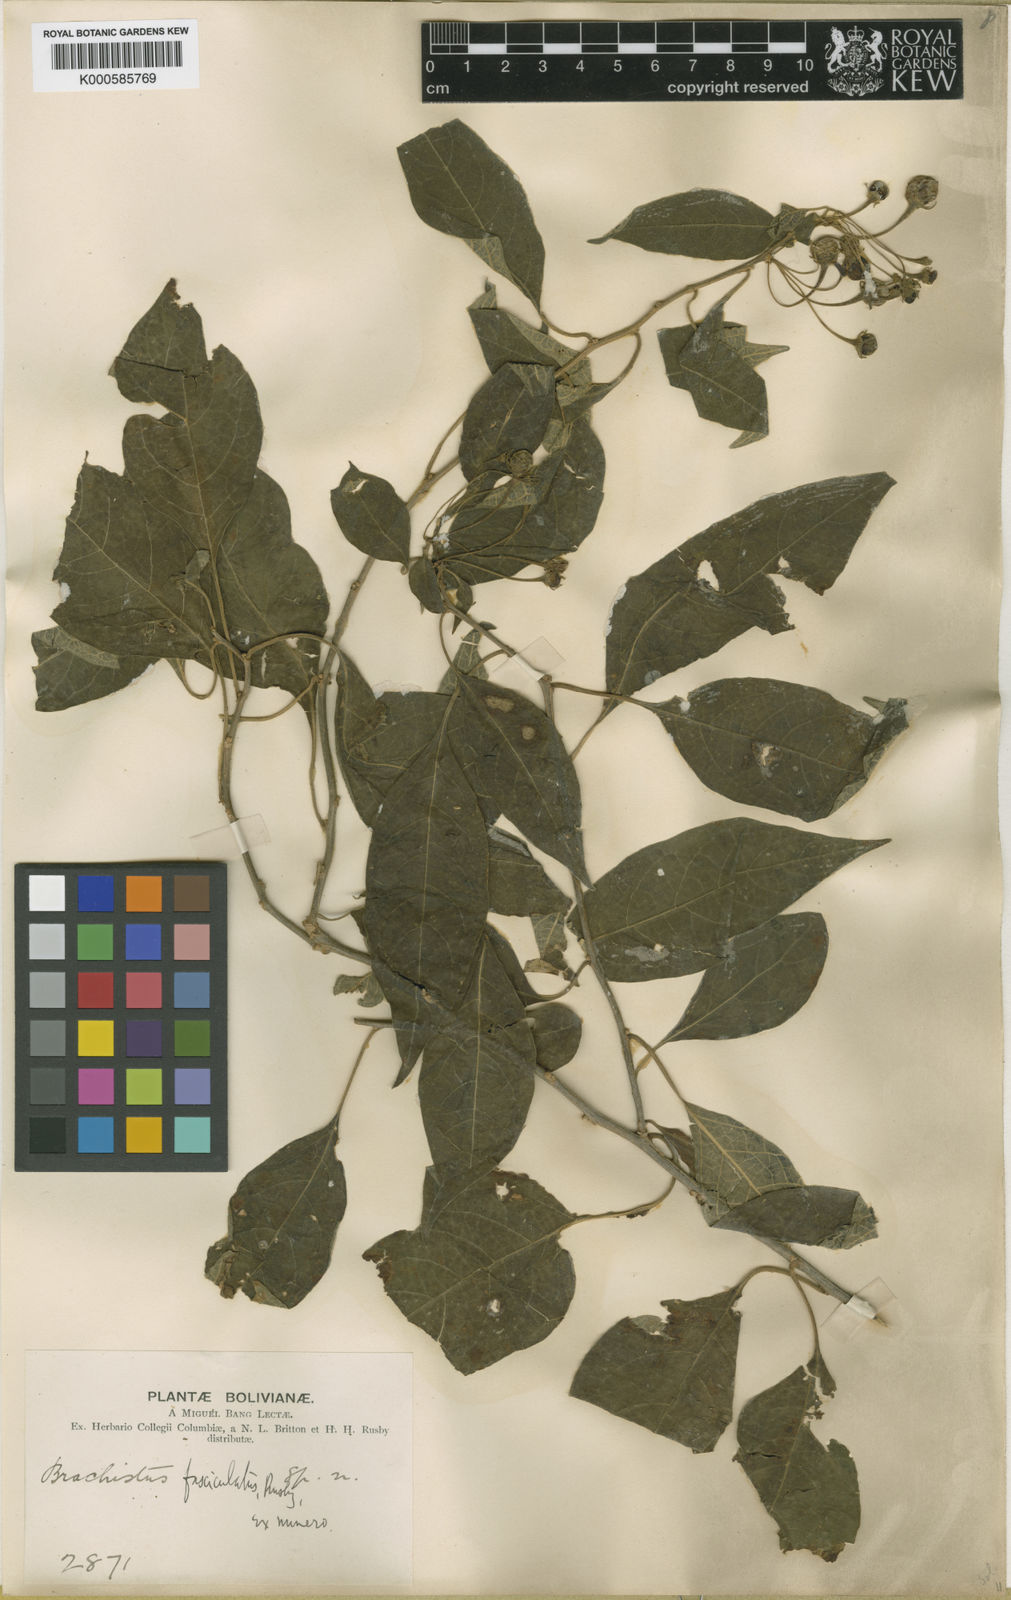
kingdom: Plantae
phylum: Tracheophyta
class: Magnoliopsida
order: Solanales
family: Solanaceae
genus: Lycianthes
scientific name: Lycianthes fasciculata
